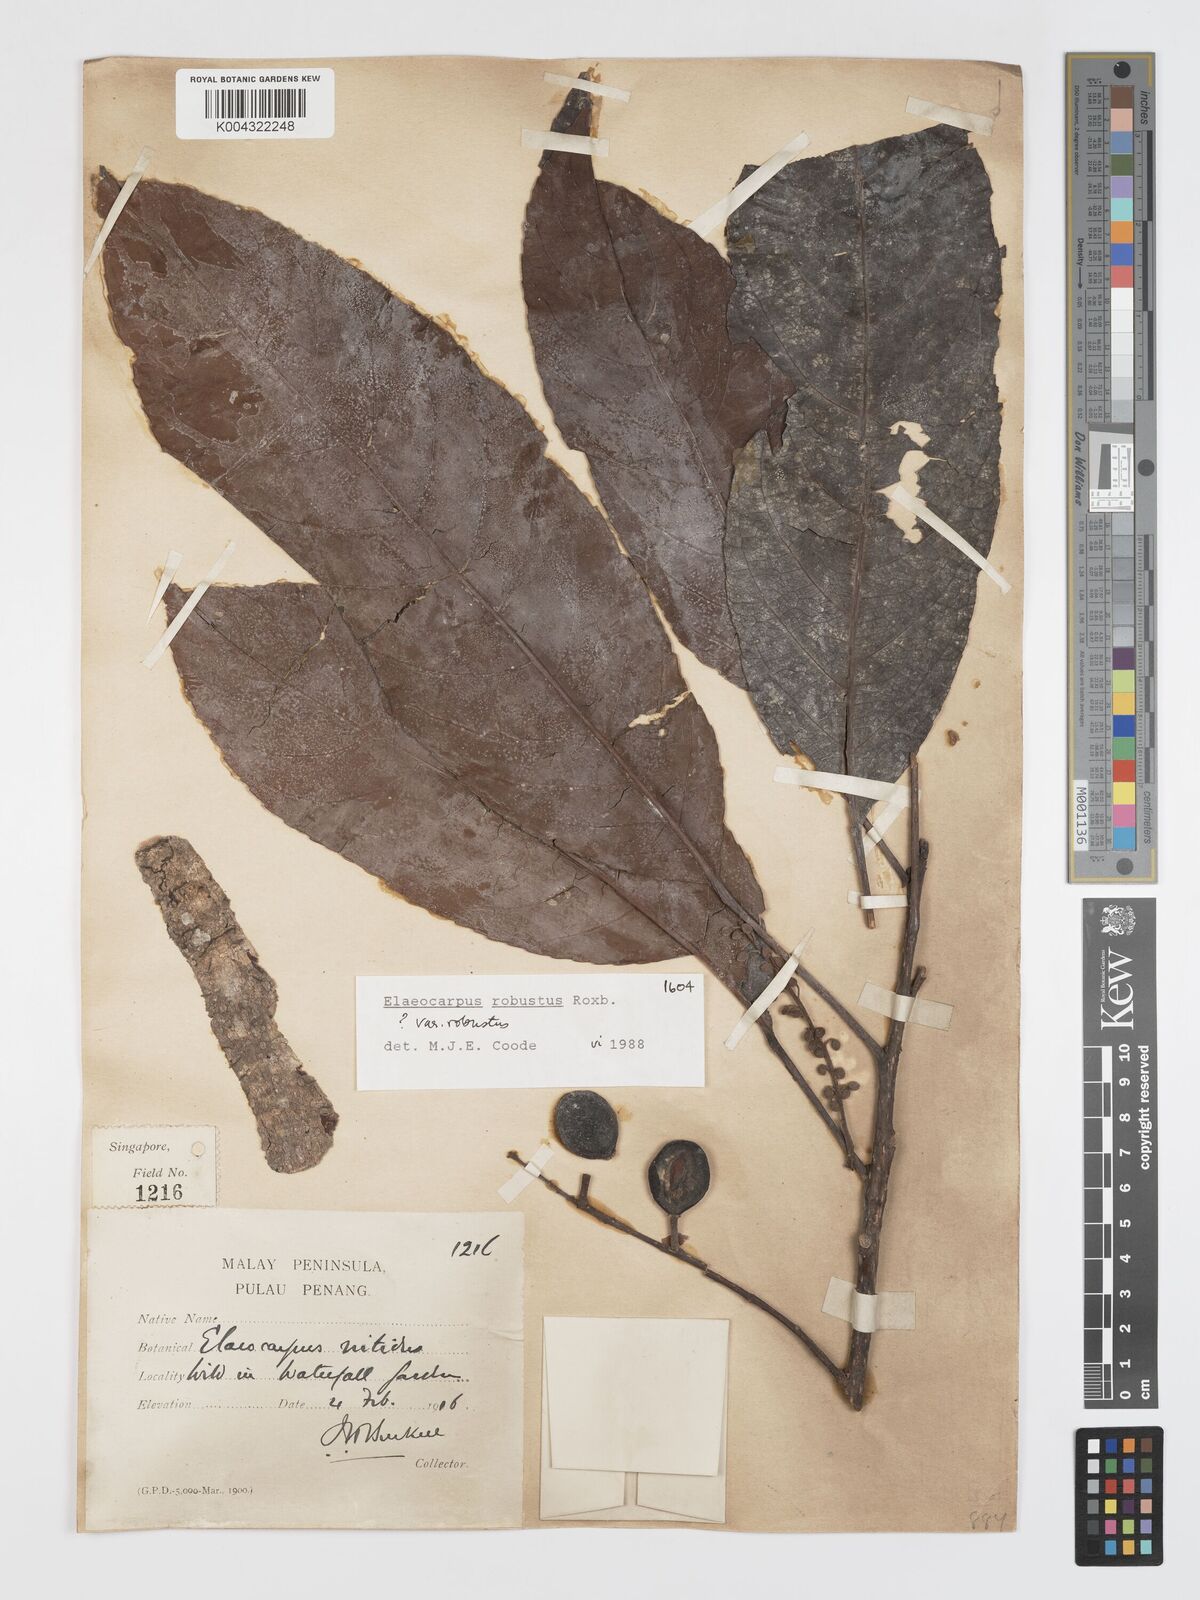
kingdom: Plantae
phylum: Tracheophyta
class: Magnoliopsida
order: Oxalidales
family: Elaeocarpaceae
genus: Elaeocarpus
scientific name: Elaeocarpus robustus
